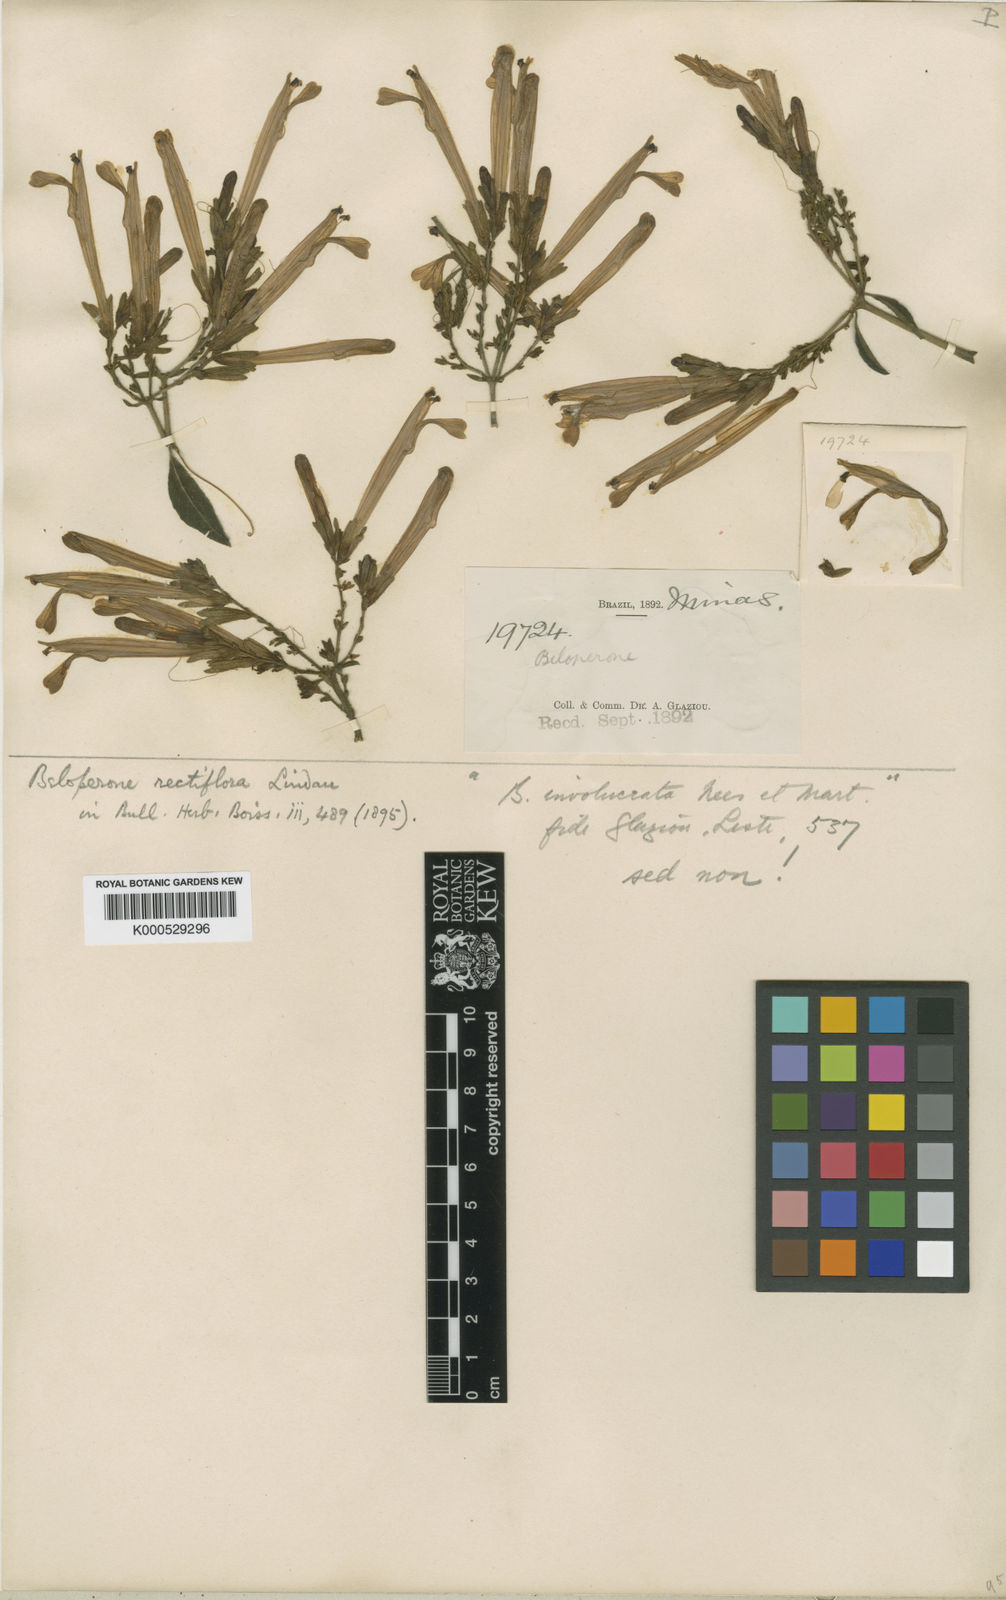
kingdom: Plantae
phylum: Tracheophyta
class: Magnoliopsida
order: Lamiales
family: Acanthaceae
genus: Justicia
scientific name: Justicia rectiflora
